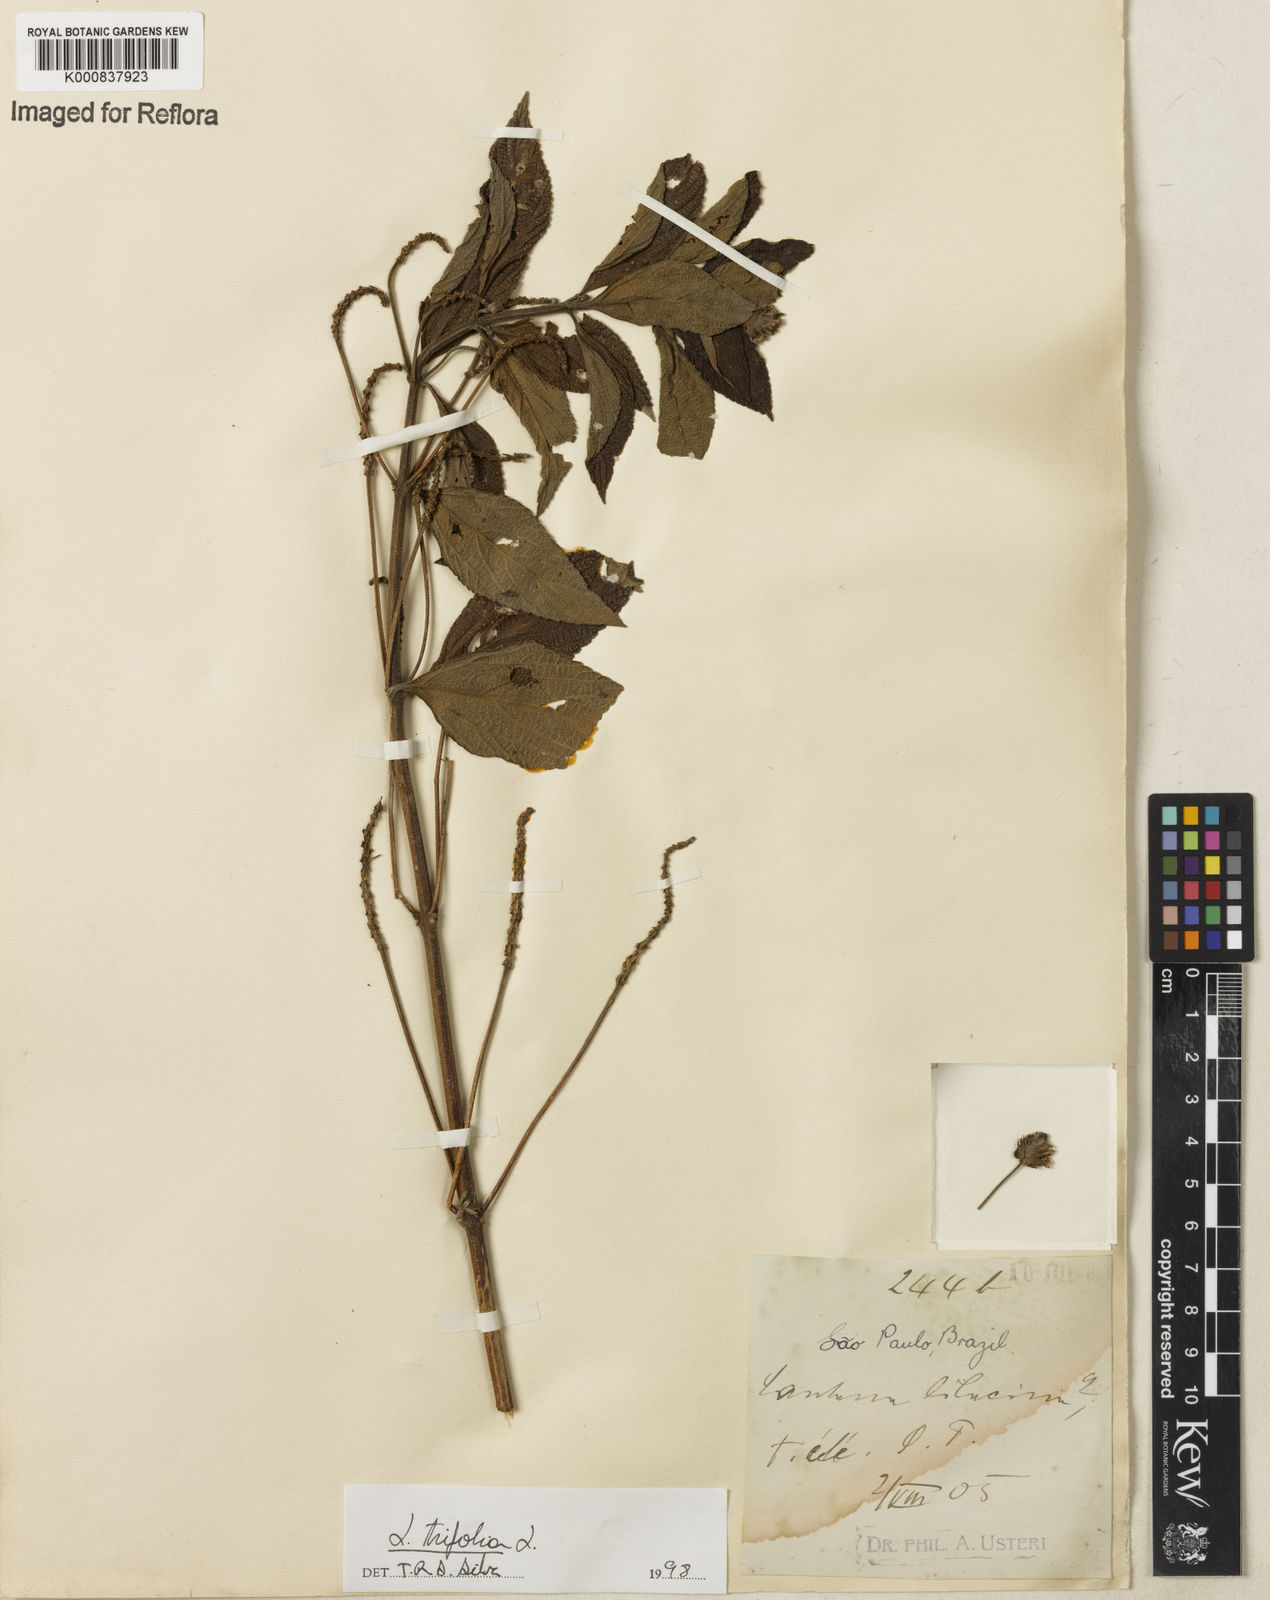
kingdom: Plantae
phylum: Tracheophyta
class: Magnoliopsida
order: Lamiales
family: Verbenaceae
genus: Lantana
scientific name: Lantana trifolia
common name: Sweet-sage
